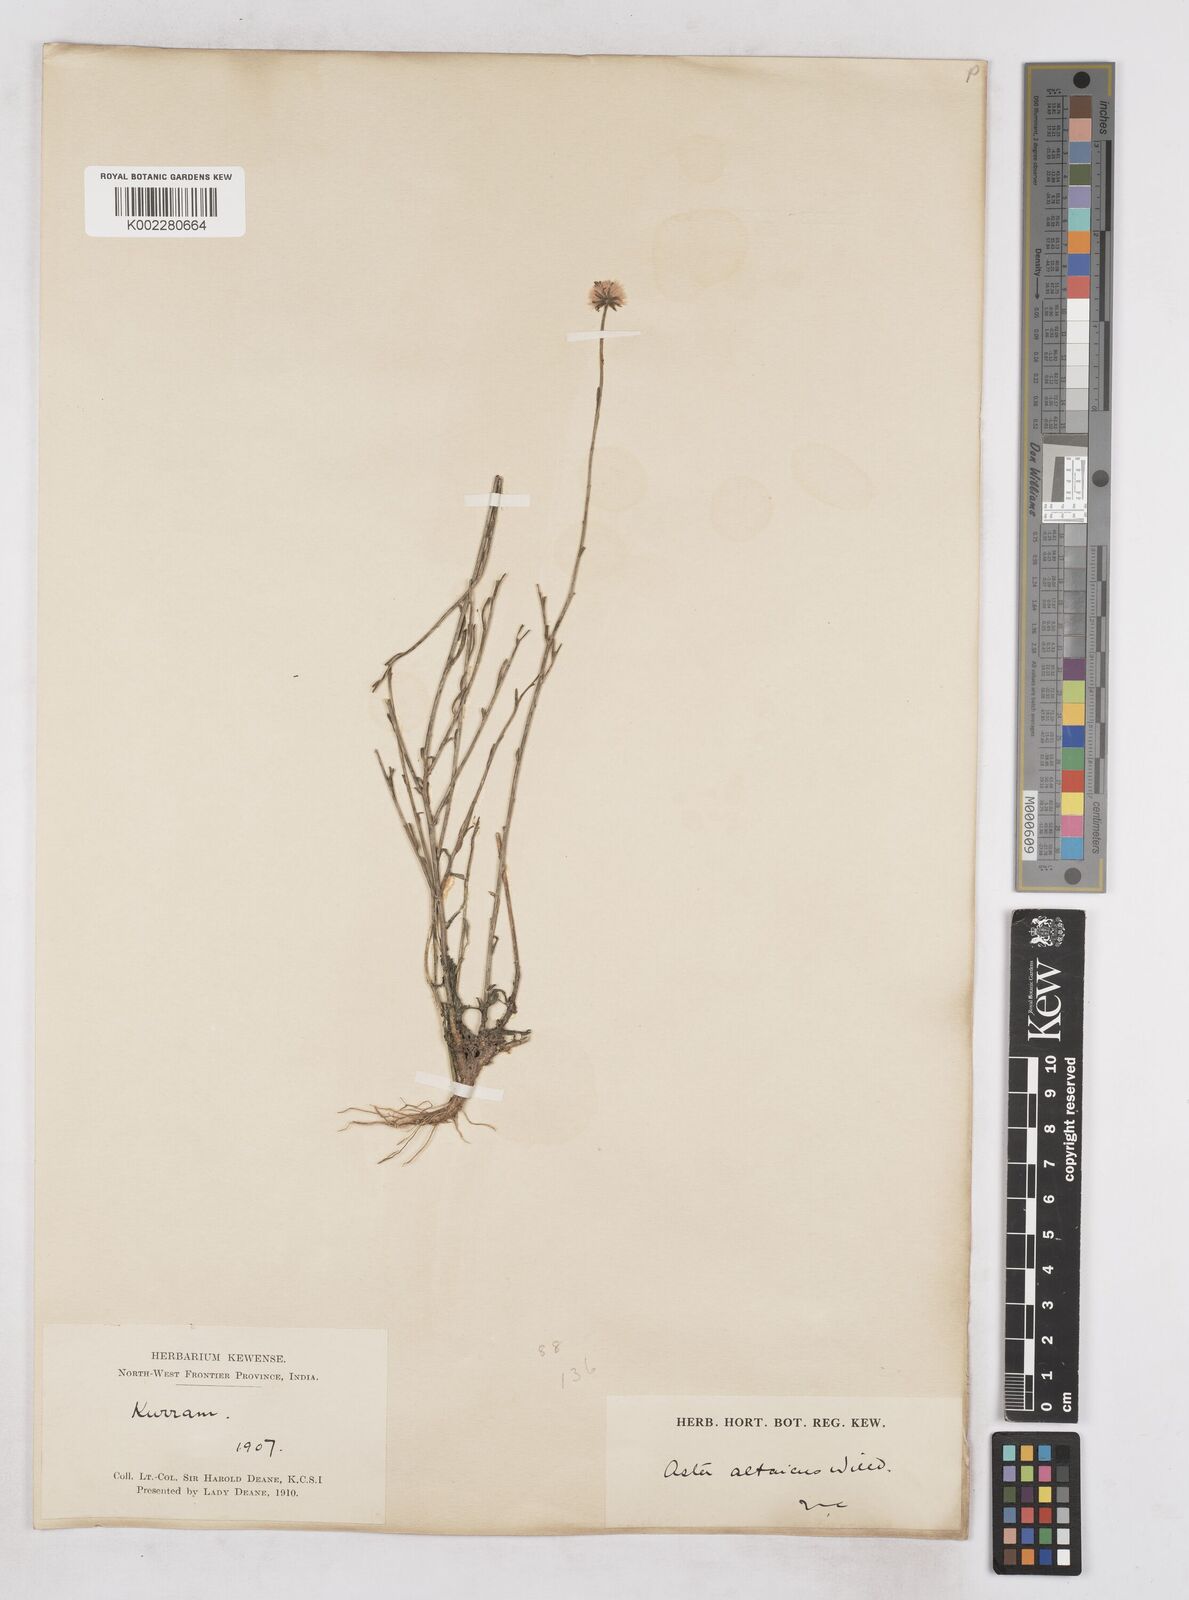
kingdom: Plantae
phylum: Tracheophyta
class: Magnoliopsida
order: Asterales
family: Asteraceae
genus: Heteropappus
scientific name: Heteropappus altaicus
